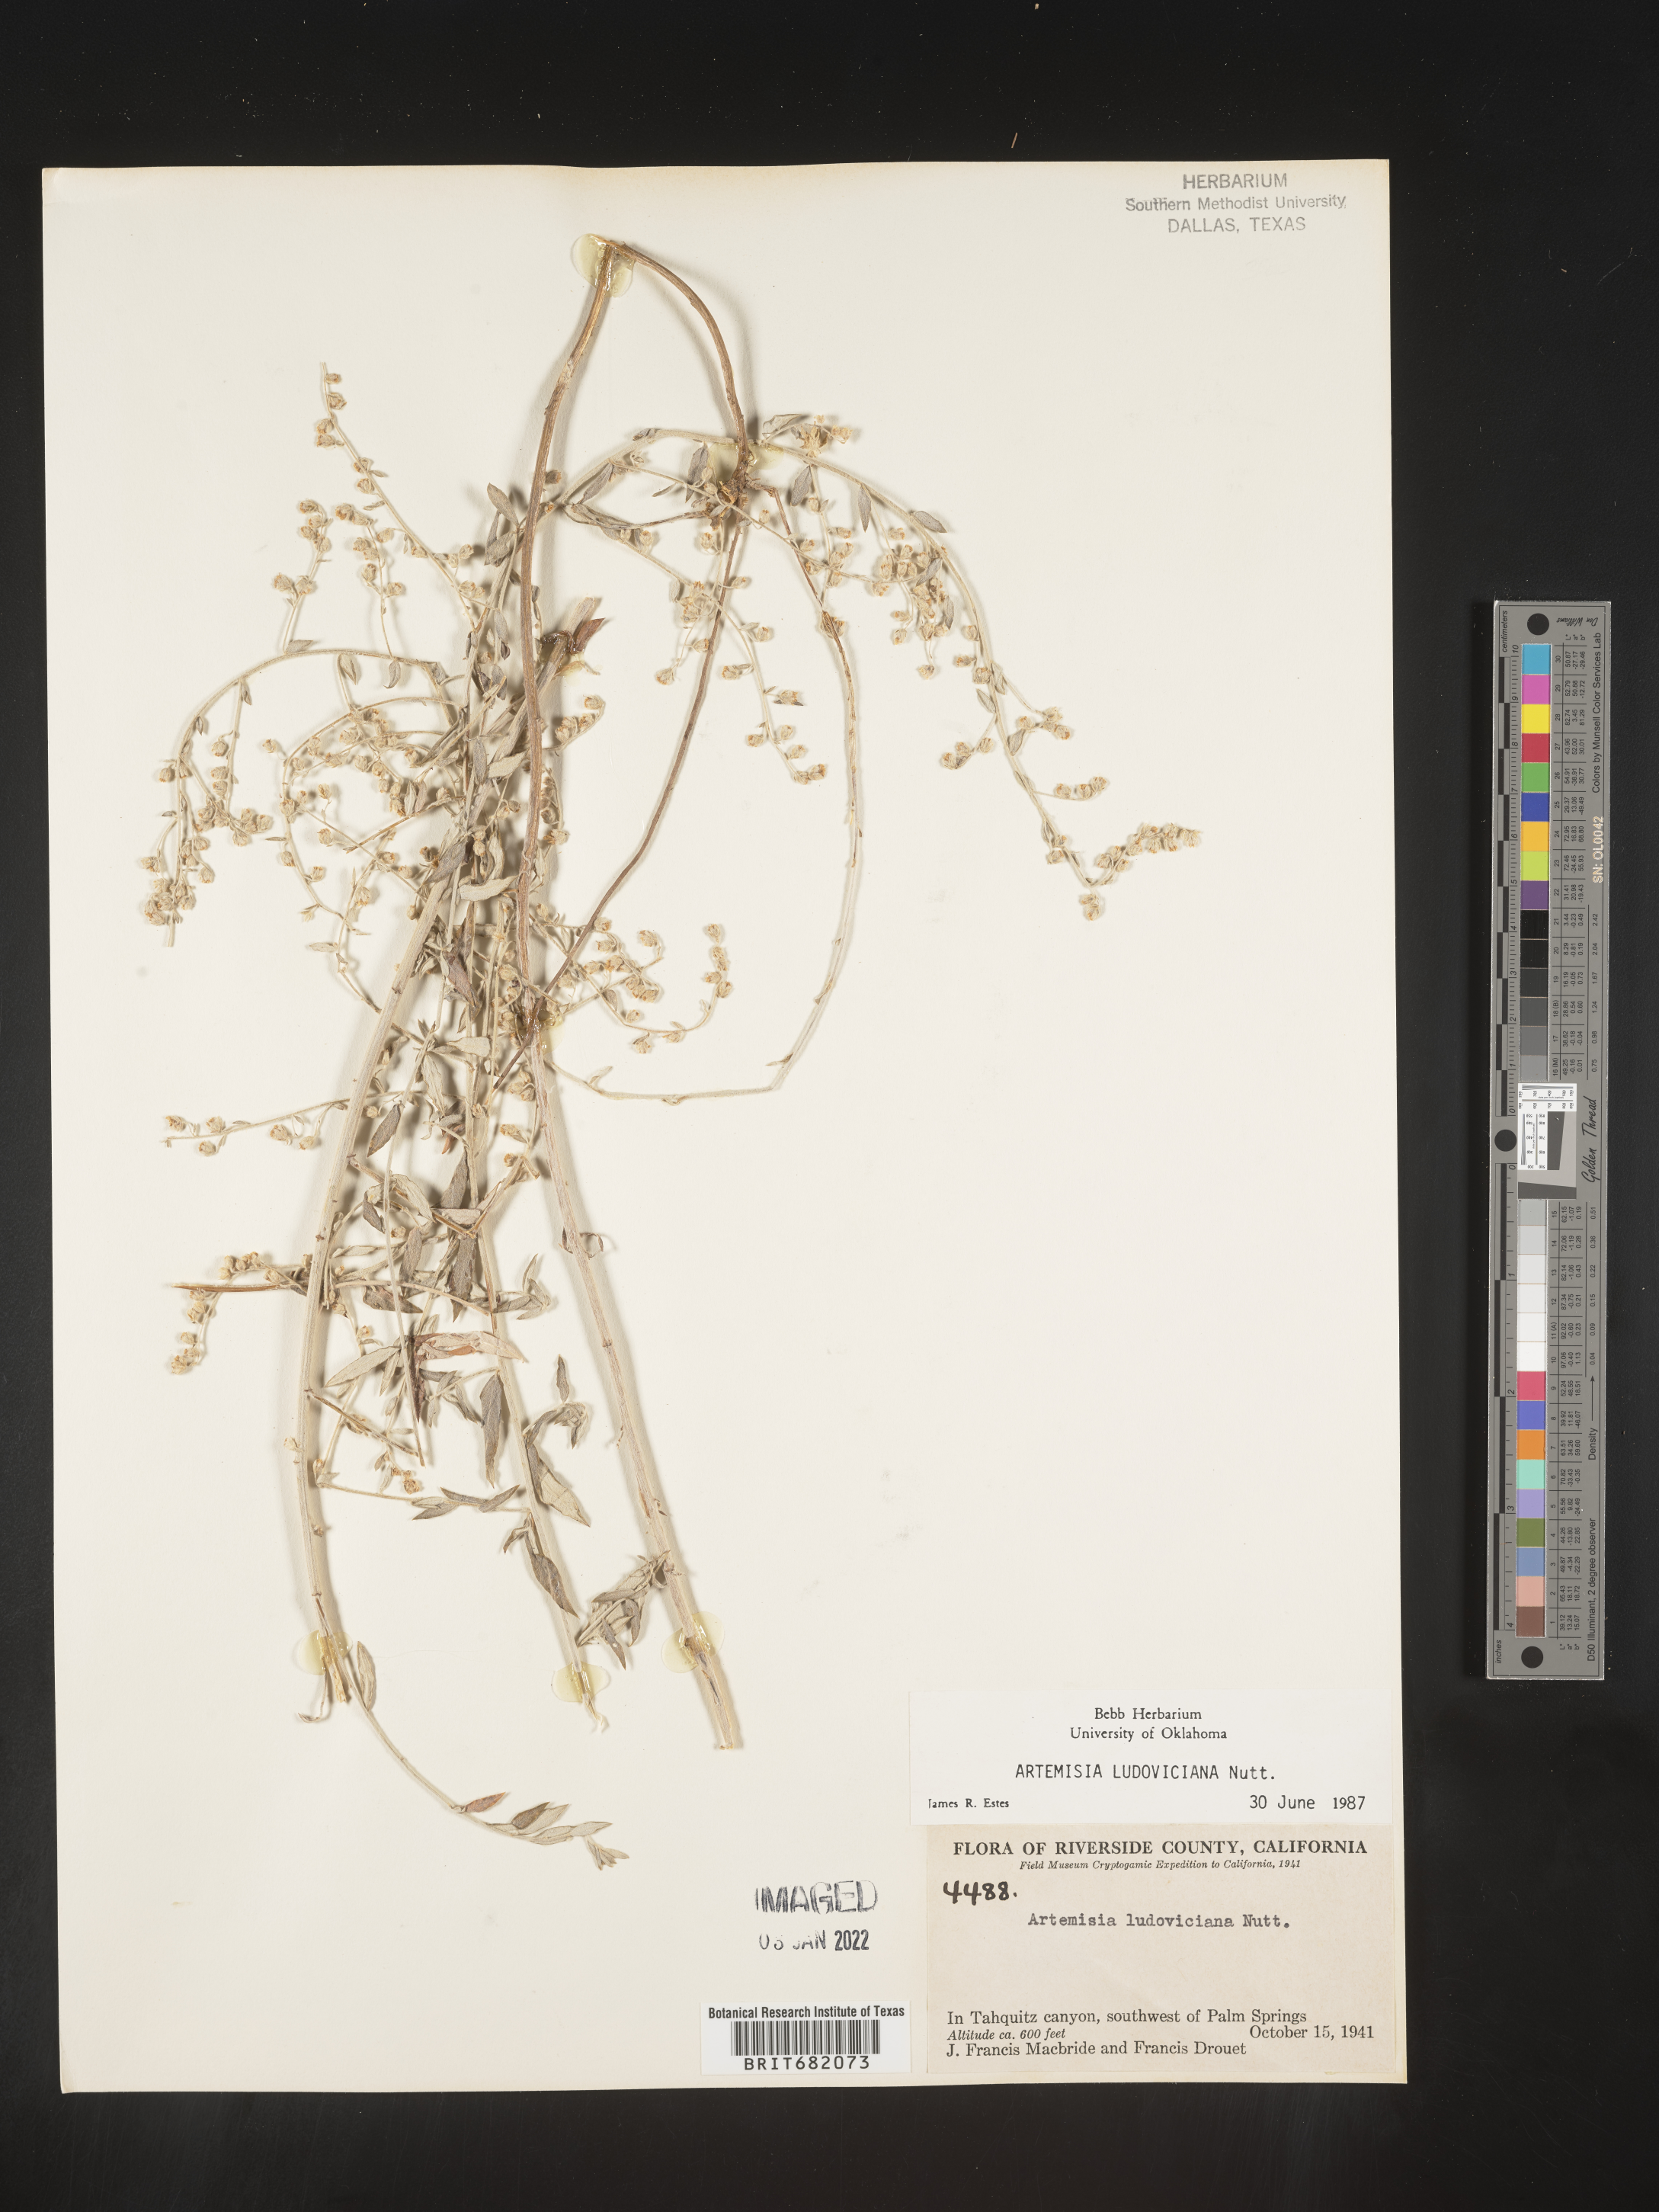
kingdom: Plantae
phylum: Tracheophyta
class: Magnoliopsida
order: Asterales
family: Asteraceae
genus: Artemisia
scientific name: Artemisia ludoviciana
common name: Western mugwort
